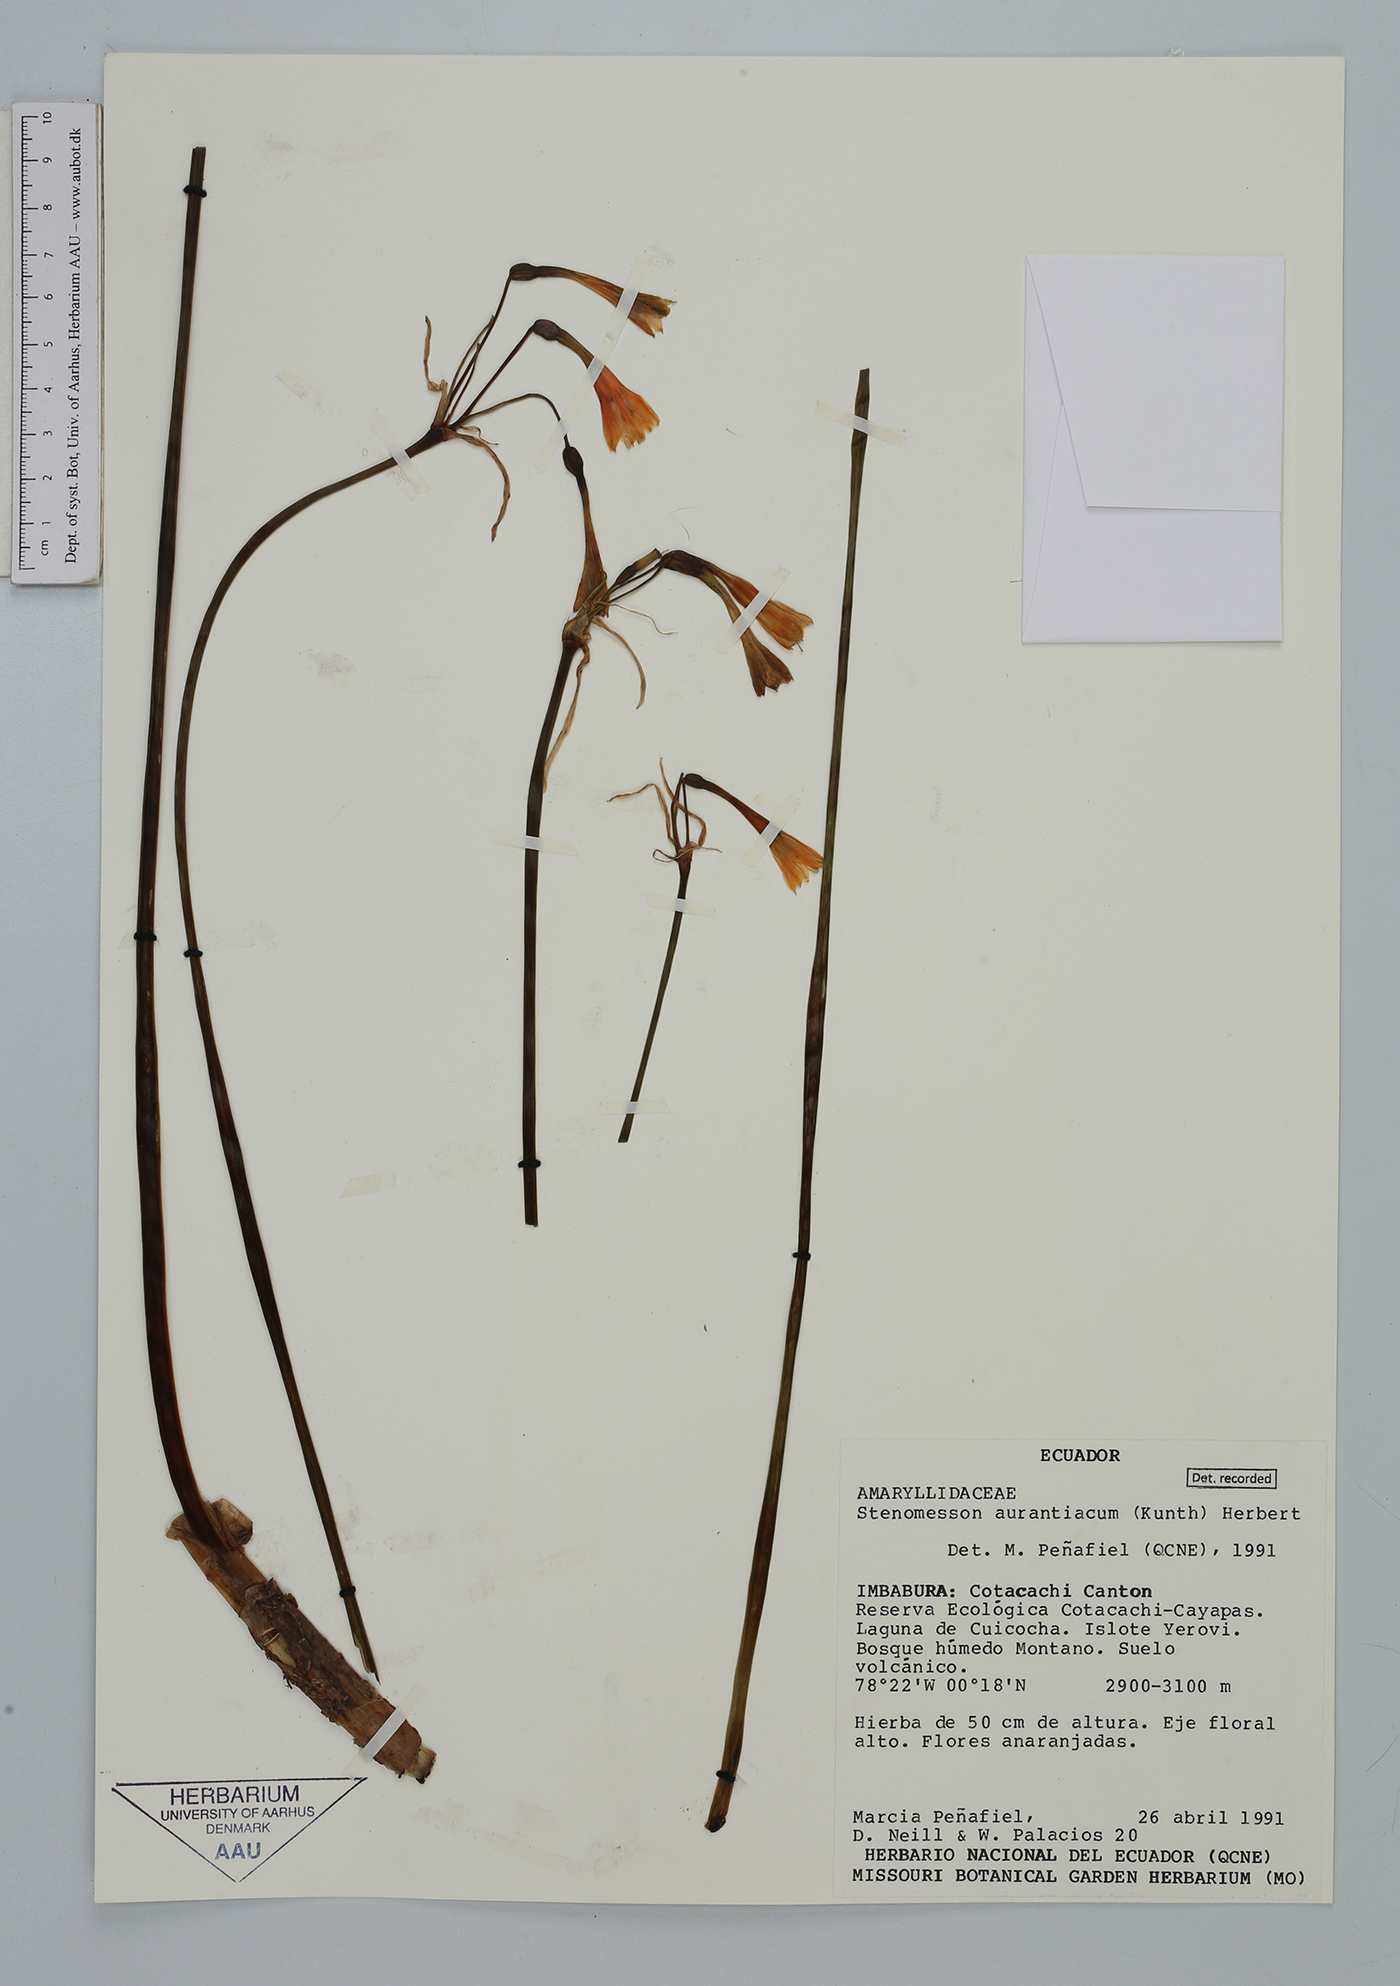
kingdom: Plantae
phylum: Tracheophyta
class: Liliopsida
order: Asparagales
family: Amaryllidaceae
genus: Stenomesson
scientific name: Stenomesson aurantiacum
